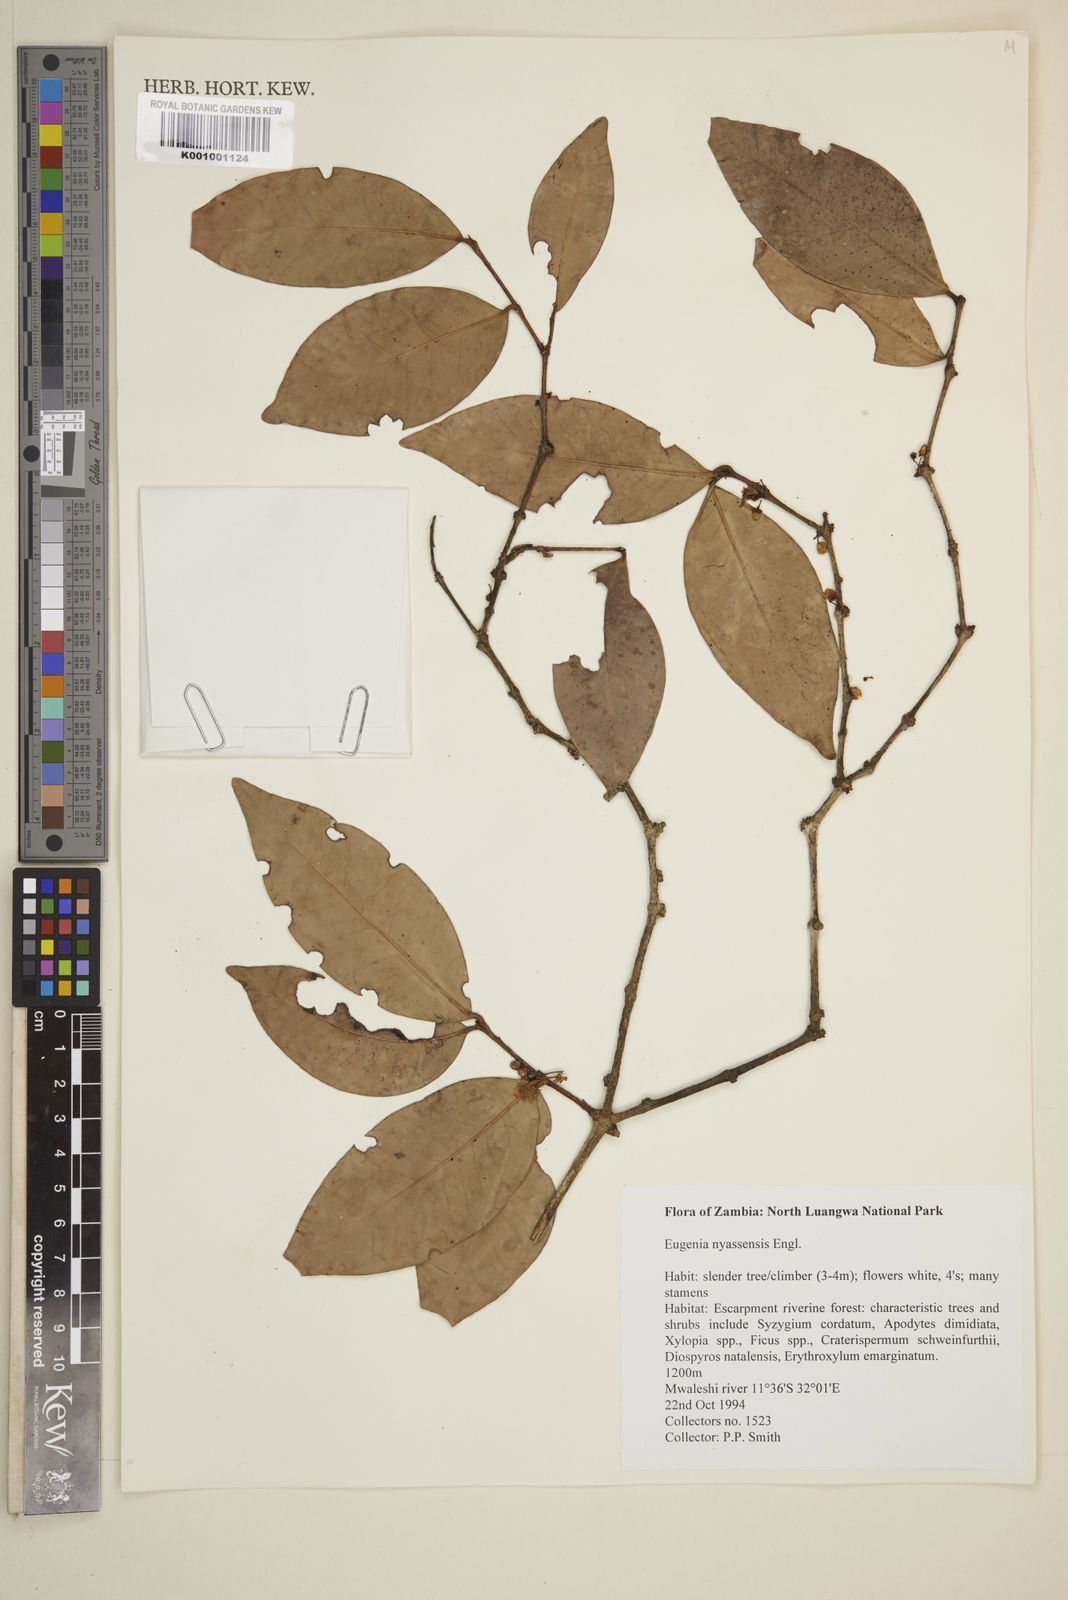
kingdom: Plantae
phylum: Tracheophyta
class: Magnoliopsida
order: Myrtales
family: Myrtaceae
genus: Eugenia
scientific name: Eugenia capensis
